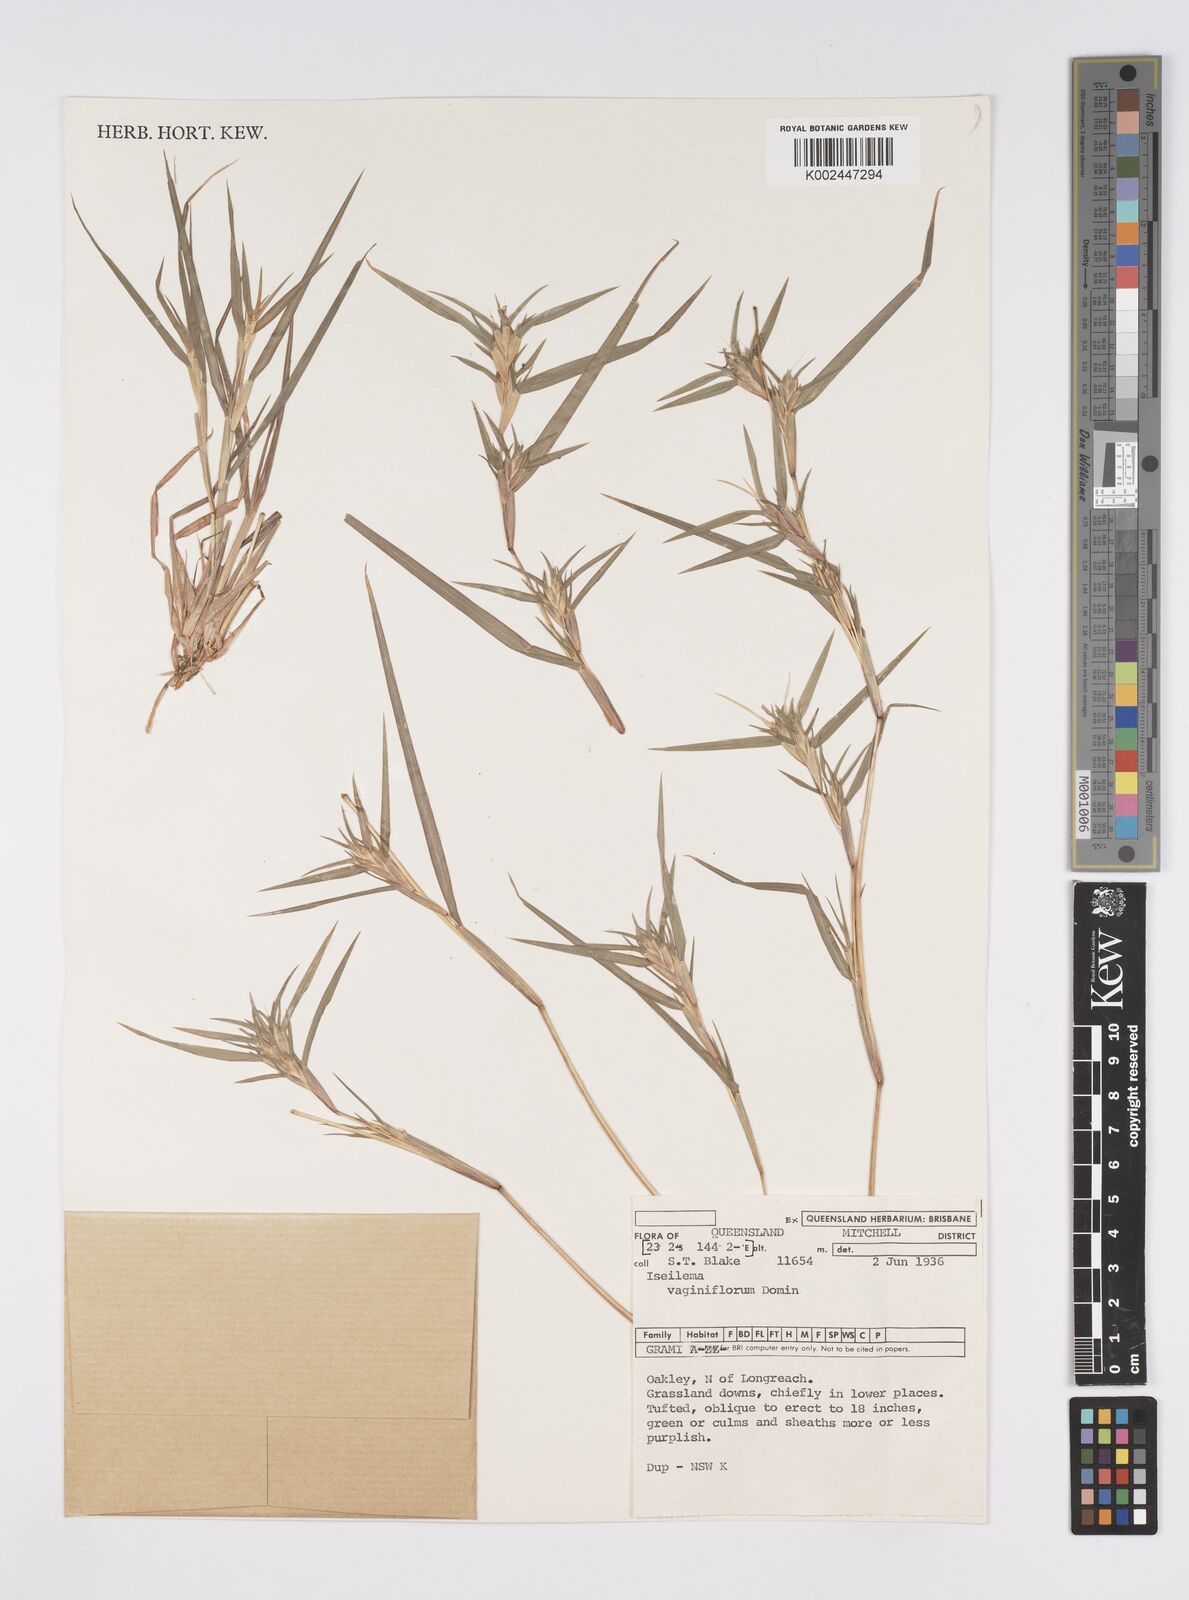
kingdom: Plantae
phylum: Tracheophyta
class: Liliopsida
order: Poales
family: Poaceae
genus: Iseilema
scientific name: Iseilema vaginiflorum
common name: Red flinders grass
